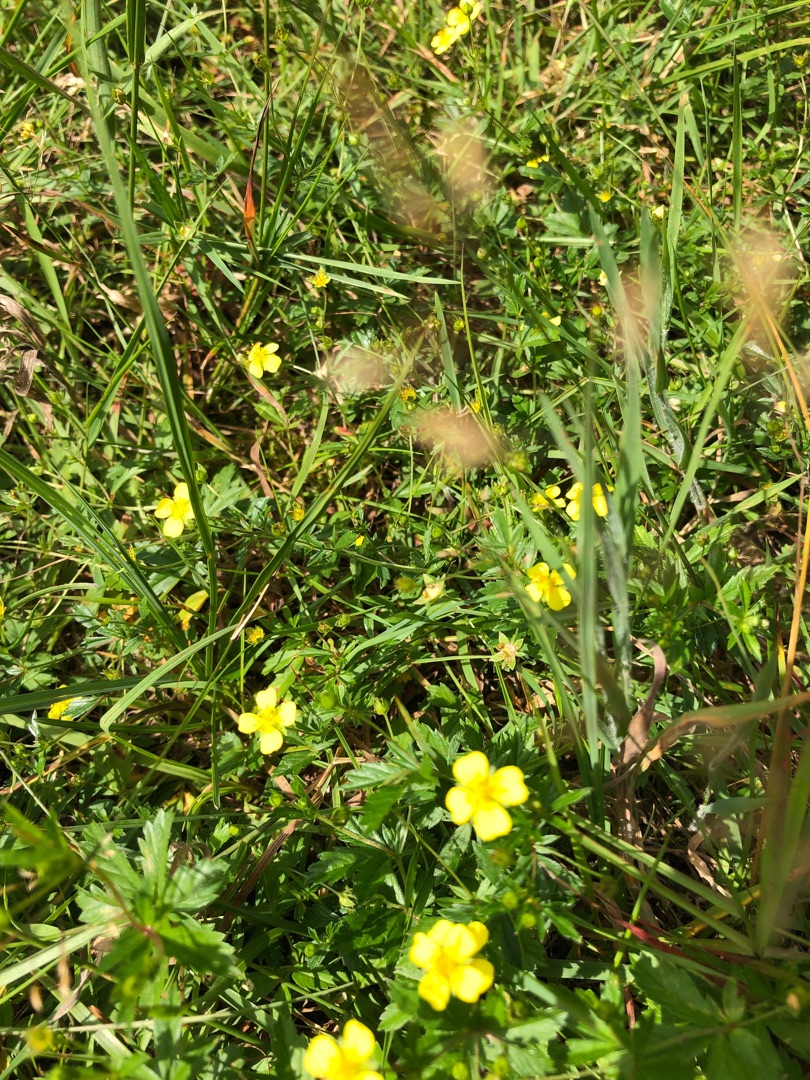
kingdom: Plantae
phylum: Tracheophyta
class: Magnoliopsida
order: Rosales
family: Rosaceae
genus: Potentilla
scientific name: Potentilla erecta
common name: Tormentil
